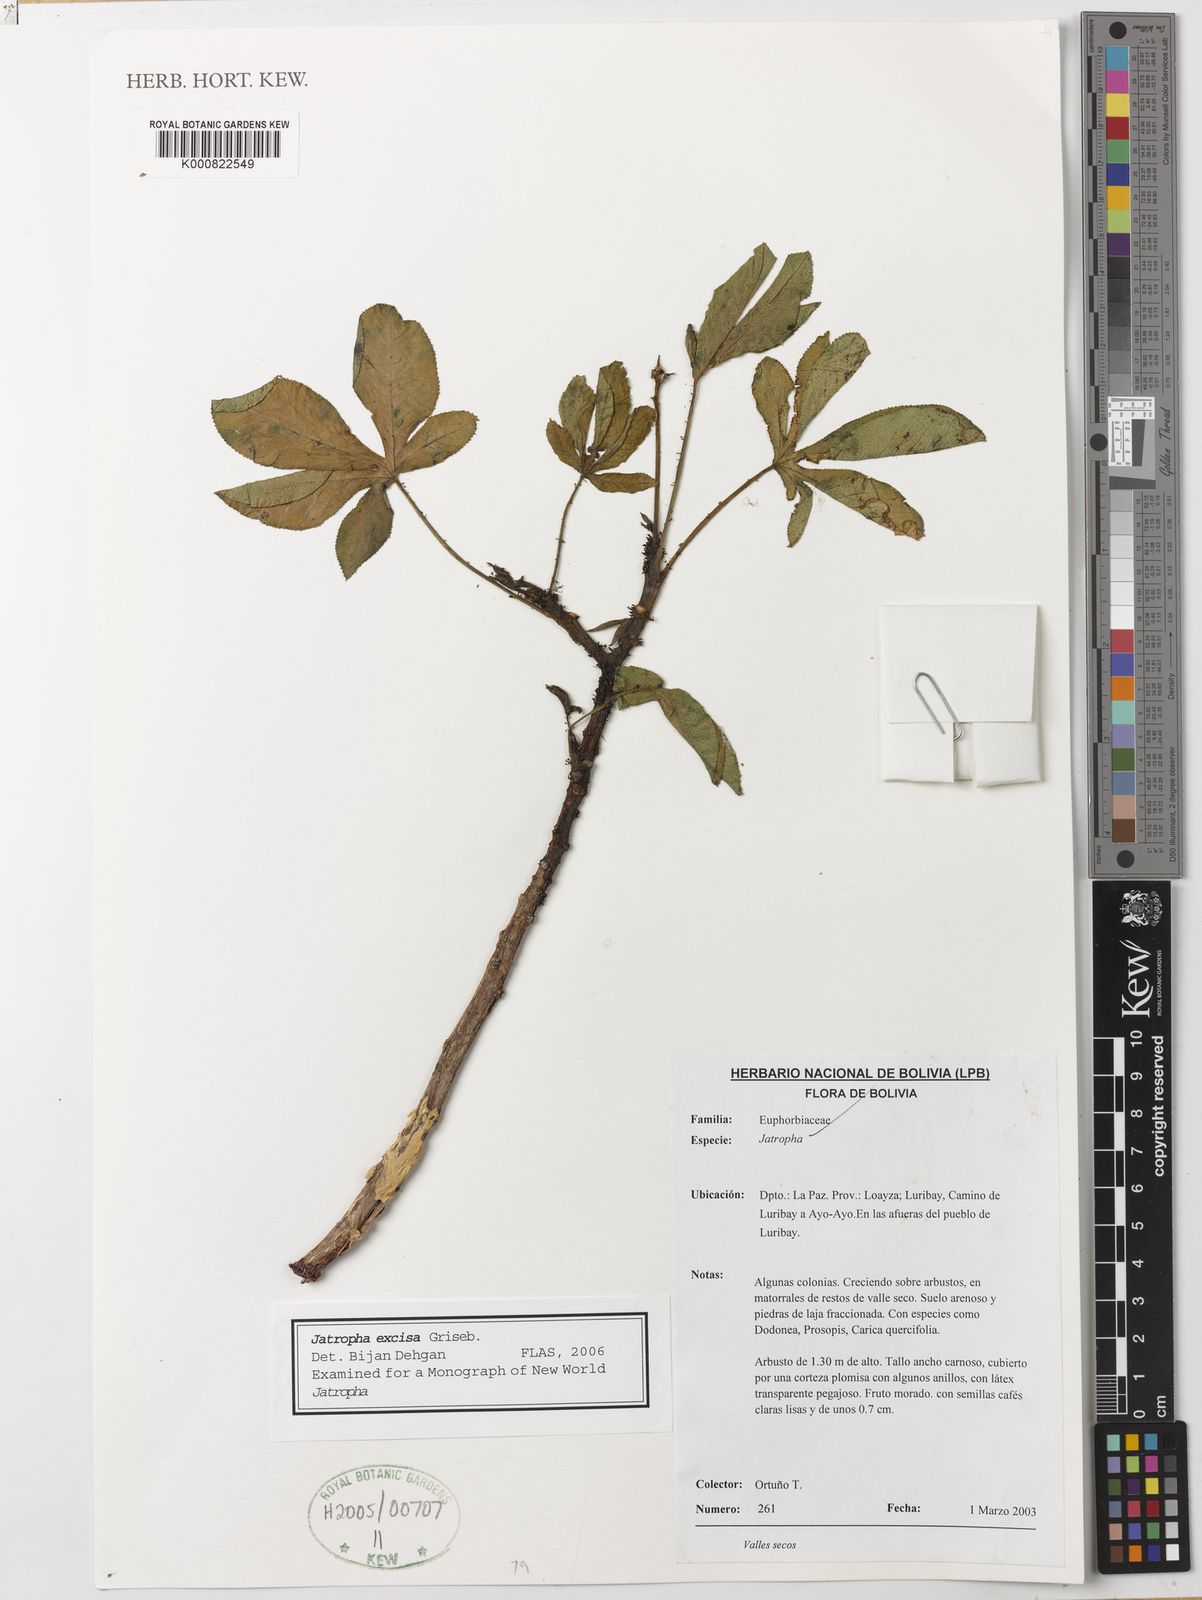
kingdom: Plantae
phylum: Tracheophyta
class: Magnoliopsida
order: Malpighiales
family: Euphorbiaceae
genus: Jatropha
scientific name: Jatropha excisa
